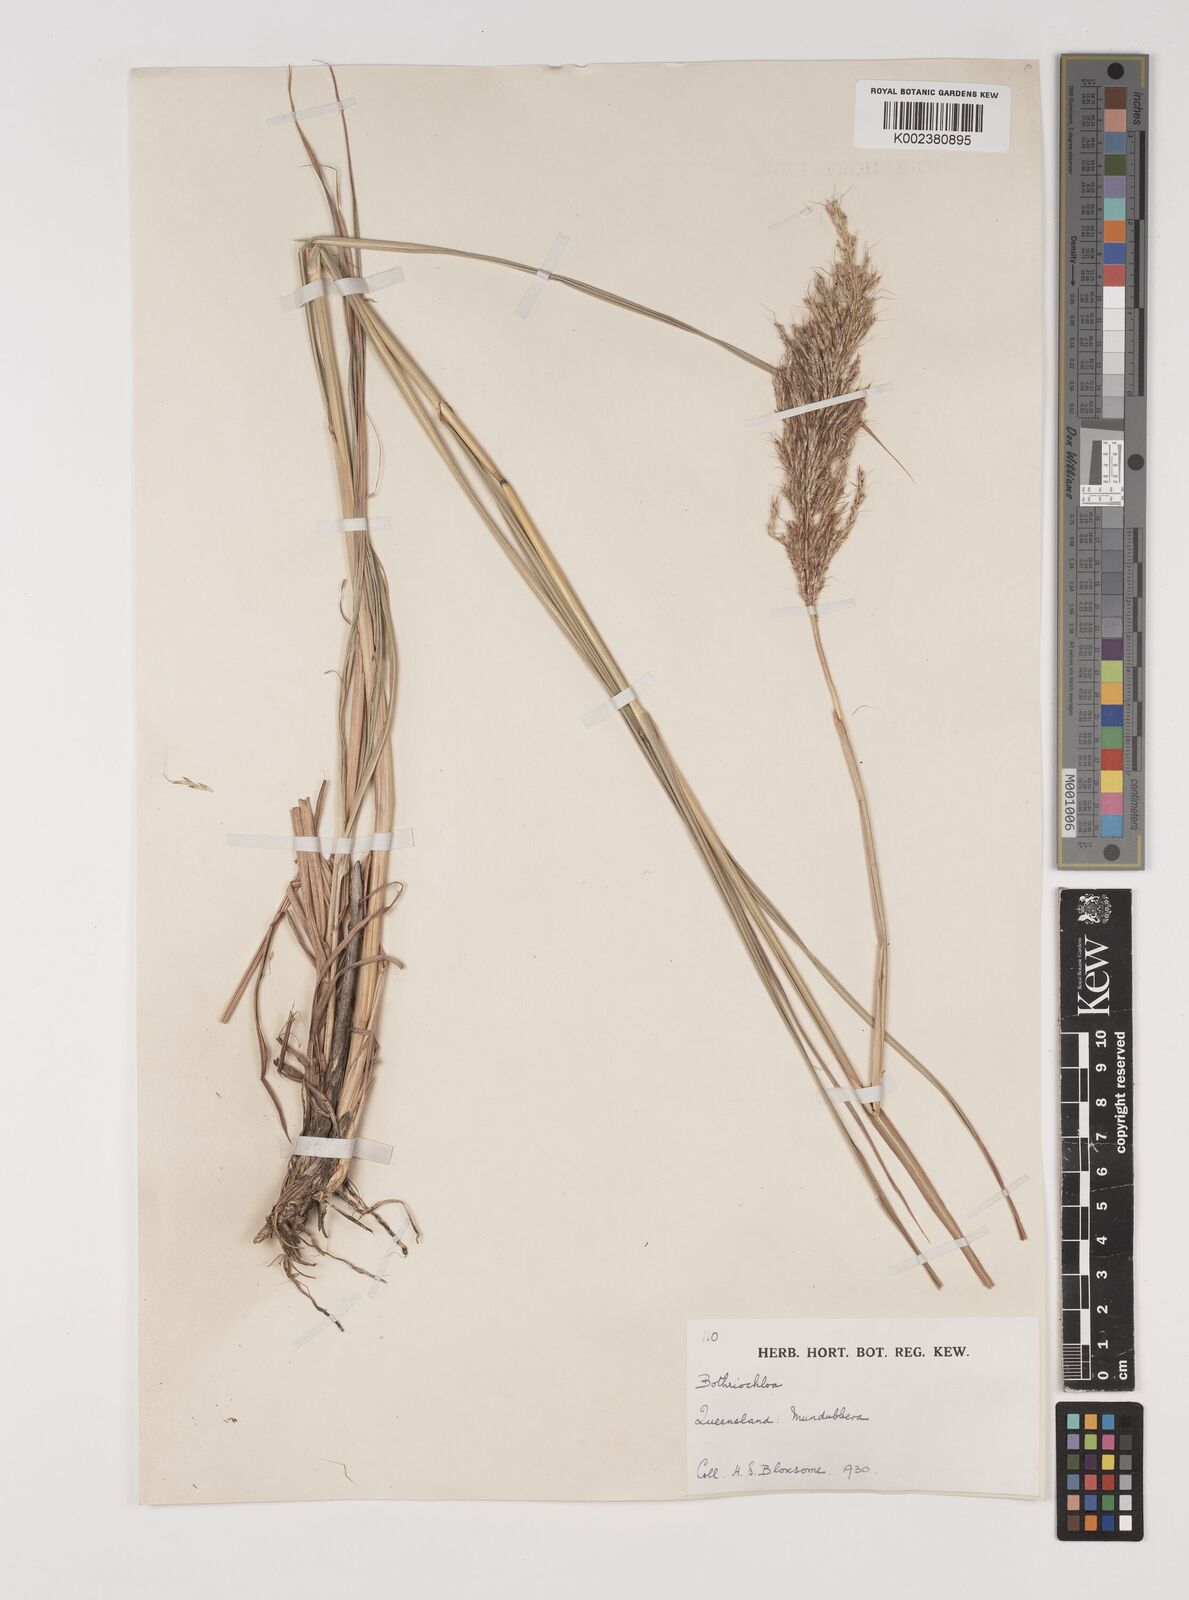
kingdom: Plantae
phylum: Tracheophyta
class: Liliopsida
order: Poales
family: Poaceae
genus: Bothriochloa
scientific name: Bothriochloa bladhii
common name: Caucasian bluestem
